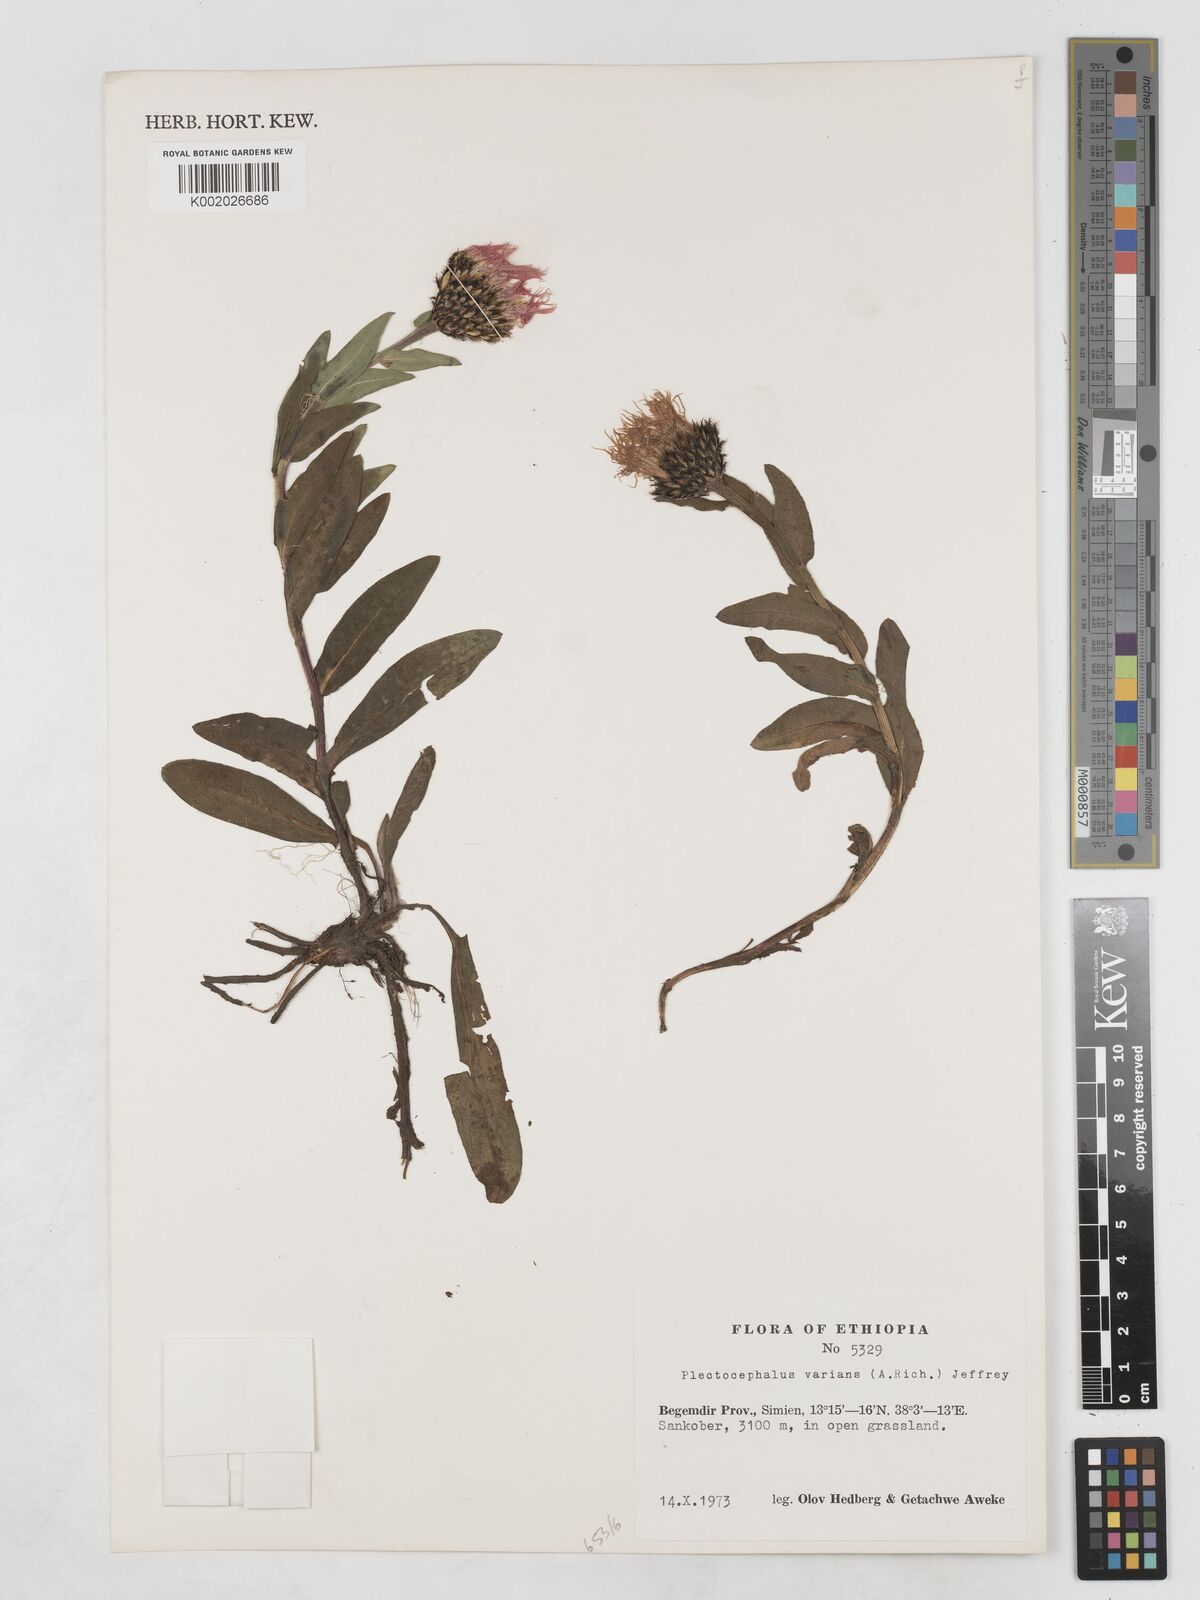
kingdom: Plantae
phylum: Tracheophyta
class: Magnoliopsida
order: Asterales
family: Asteraceae
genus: Plectocephalus
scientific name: Plectocephalus varians
